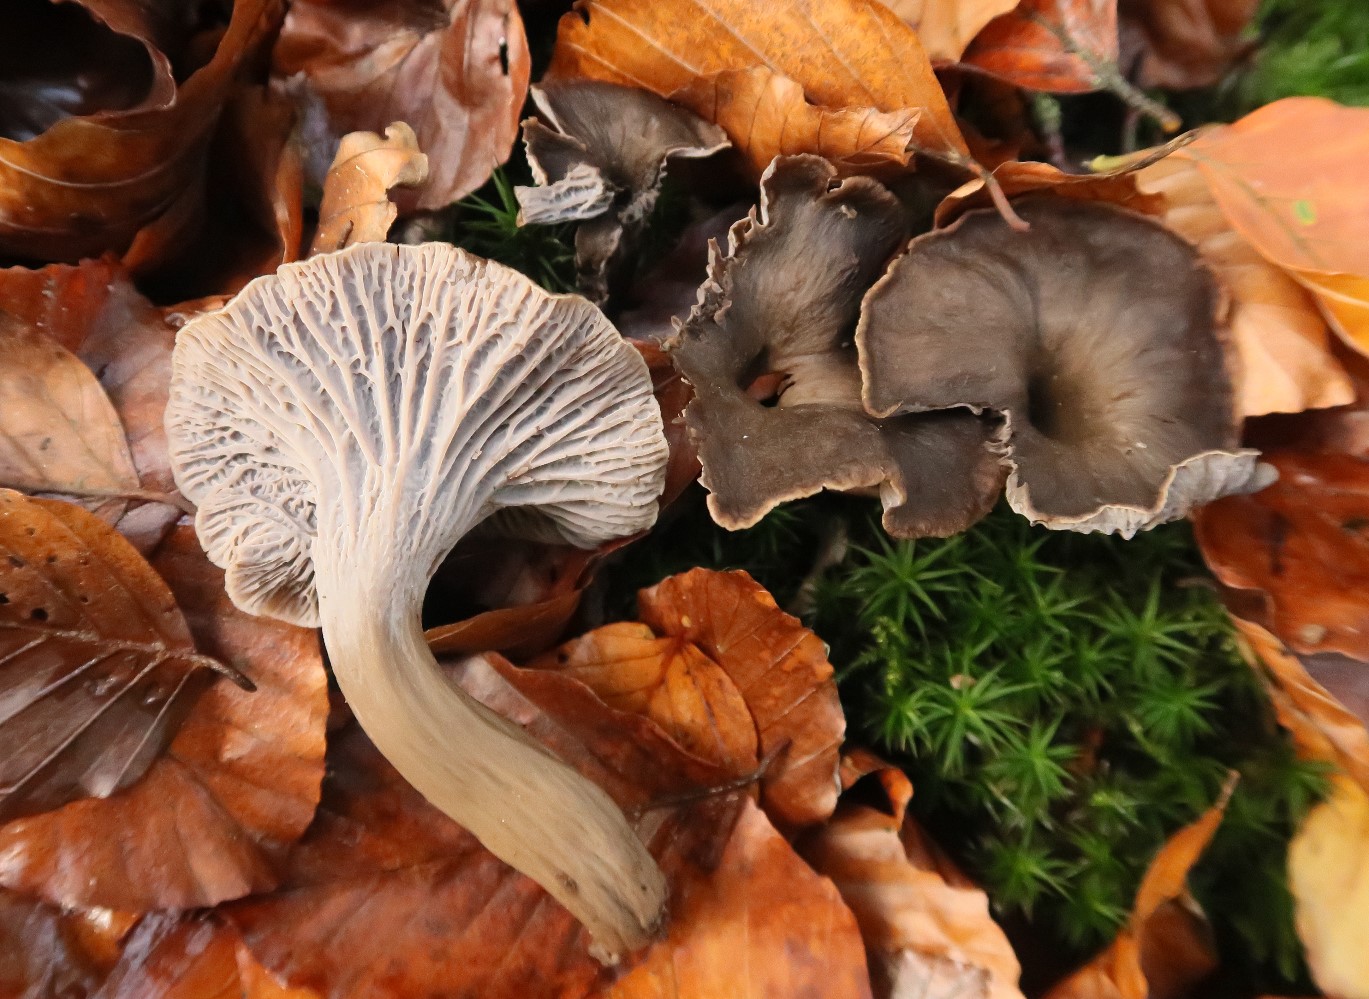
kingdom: Fungi
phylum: Basidiomycota
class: Agaricomycetes
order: Cantharellales
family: Hydnaceae
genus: Cantharellus
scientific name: Cantharellus cinereus
